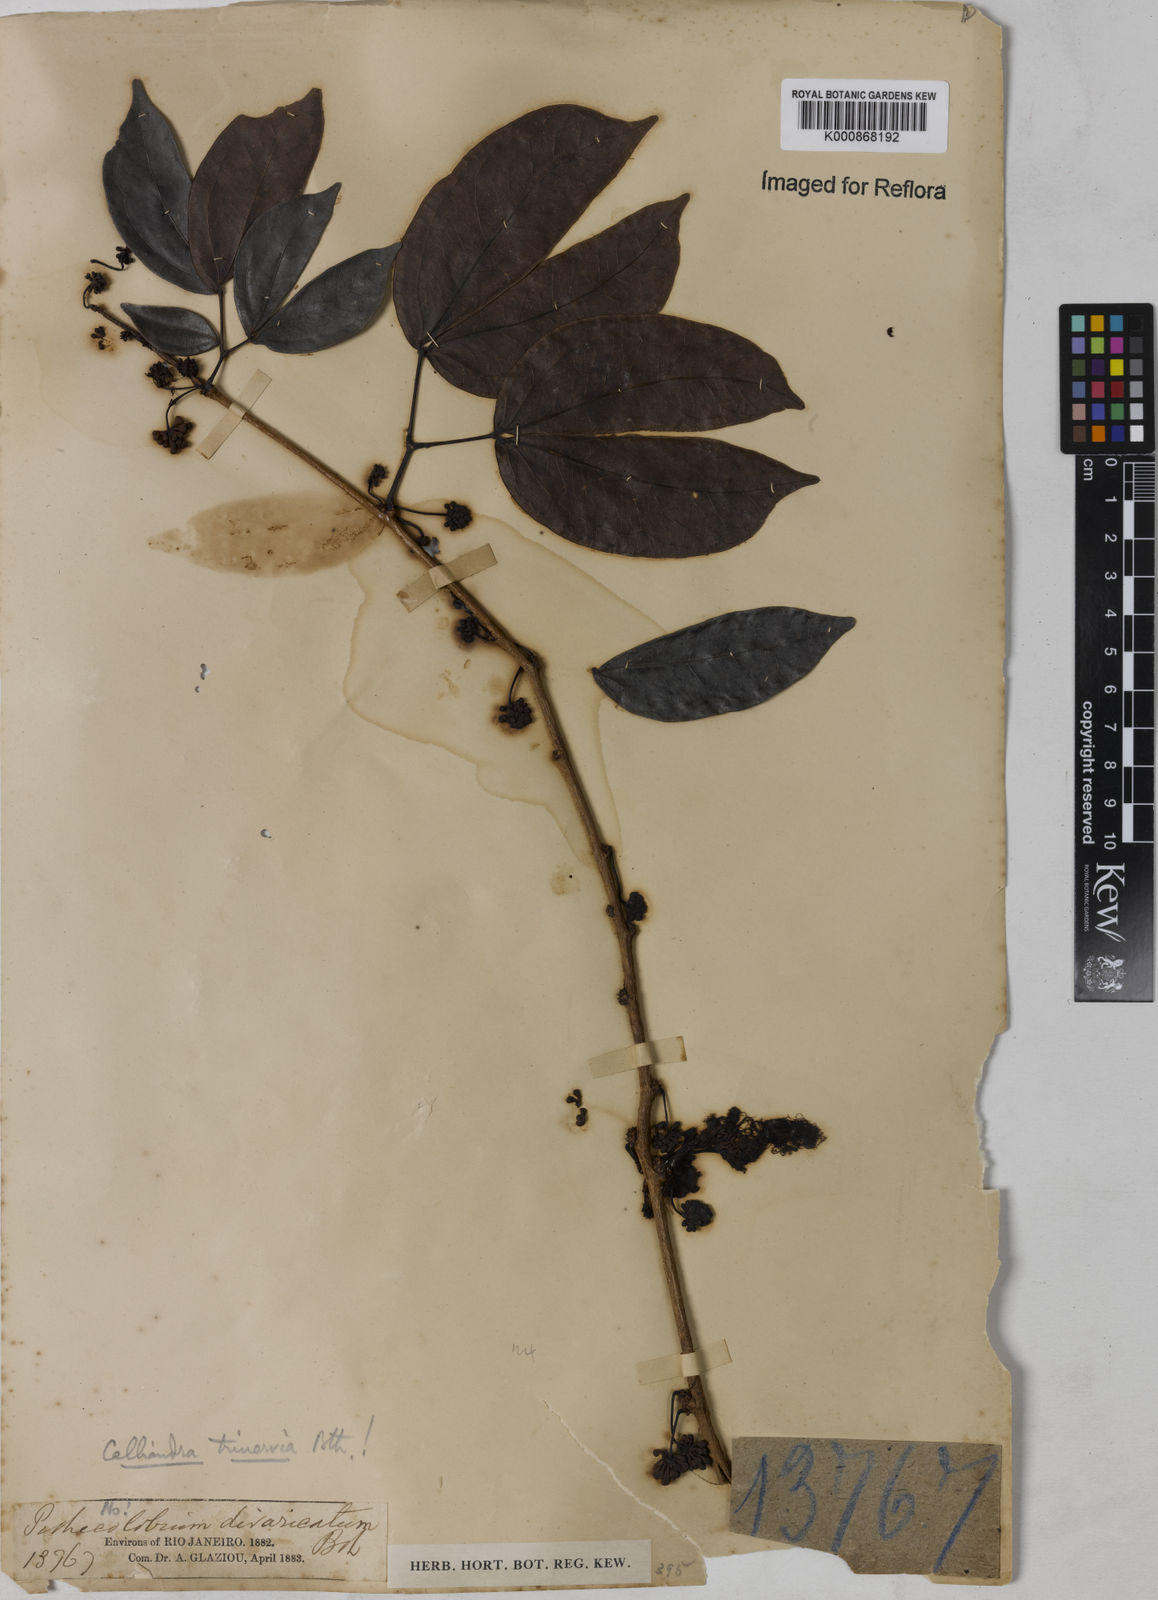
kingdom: Plantae
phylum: Tracheophyta
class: Magnoliopsida
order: Fabales
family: Fabaceae
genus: Calliandra
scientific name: Calliandra trinervia
